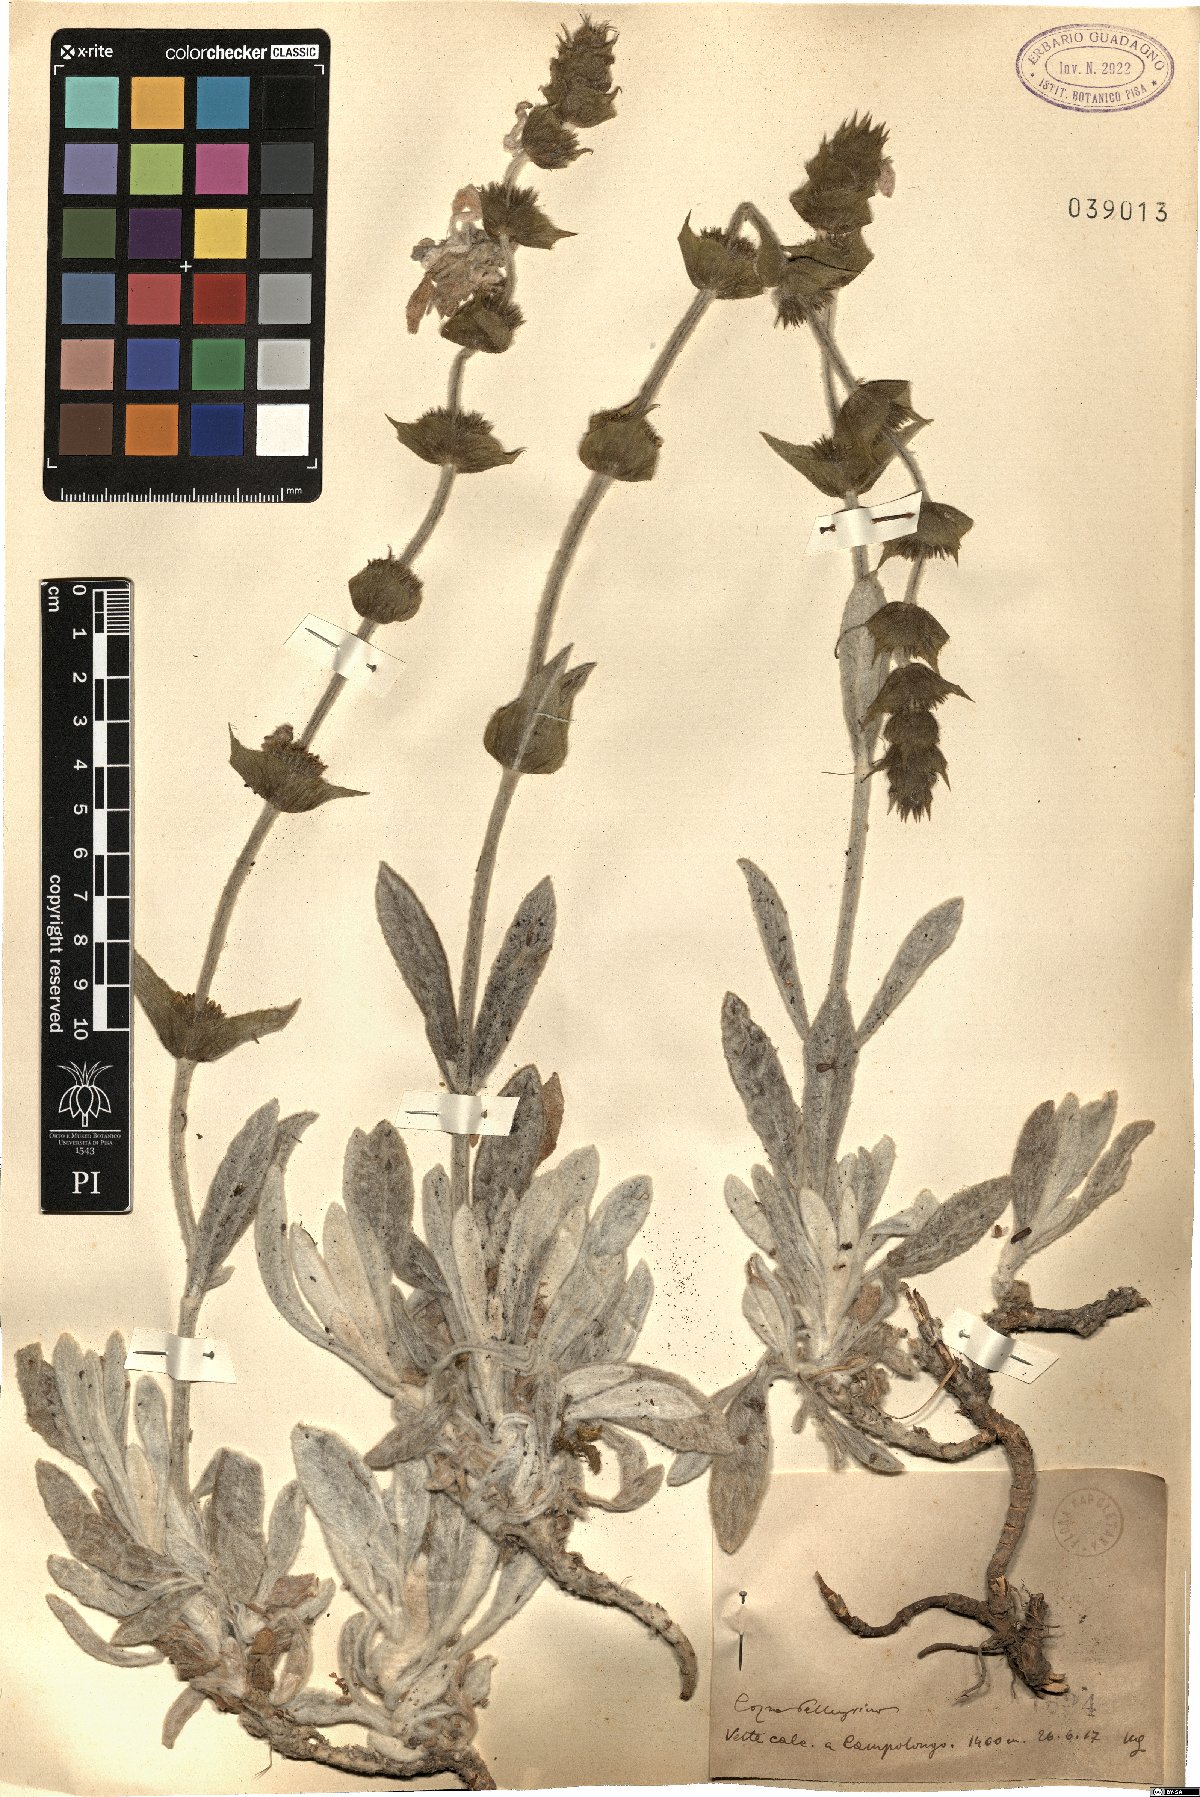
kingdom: Plantae
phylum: Tracheophyta
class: Magnoliopsida
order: Lamiales
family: Lamiaceae
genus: Sideritis
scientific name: Sideritis
